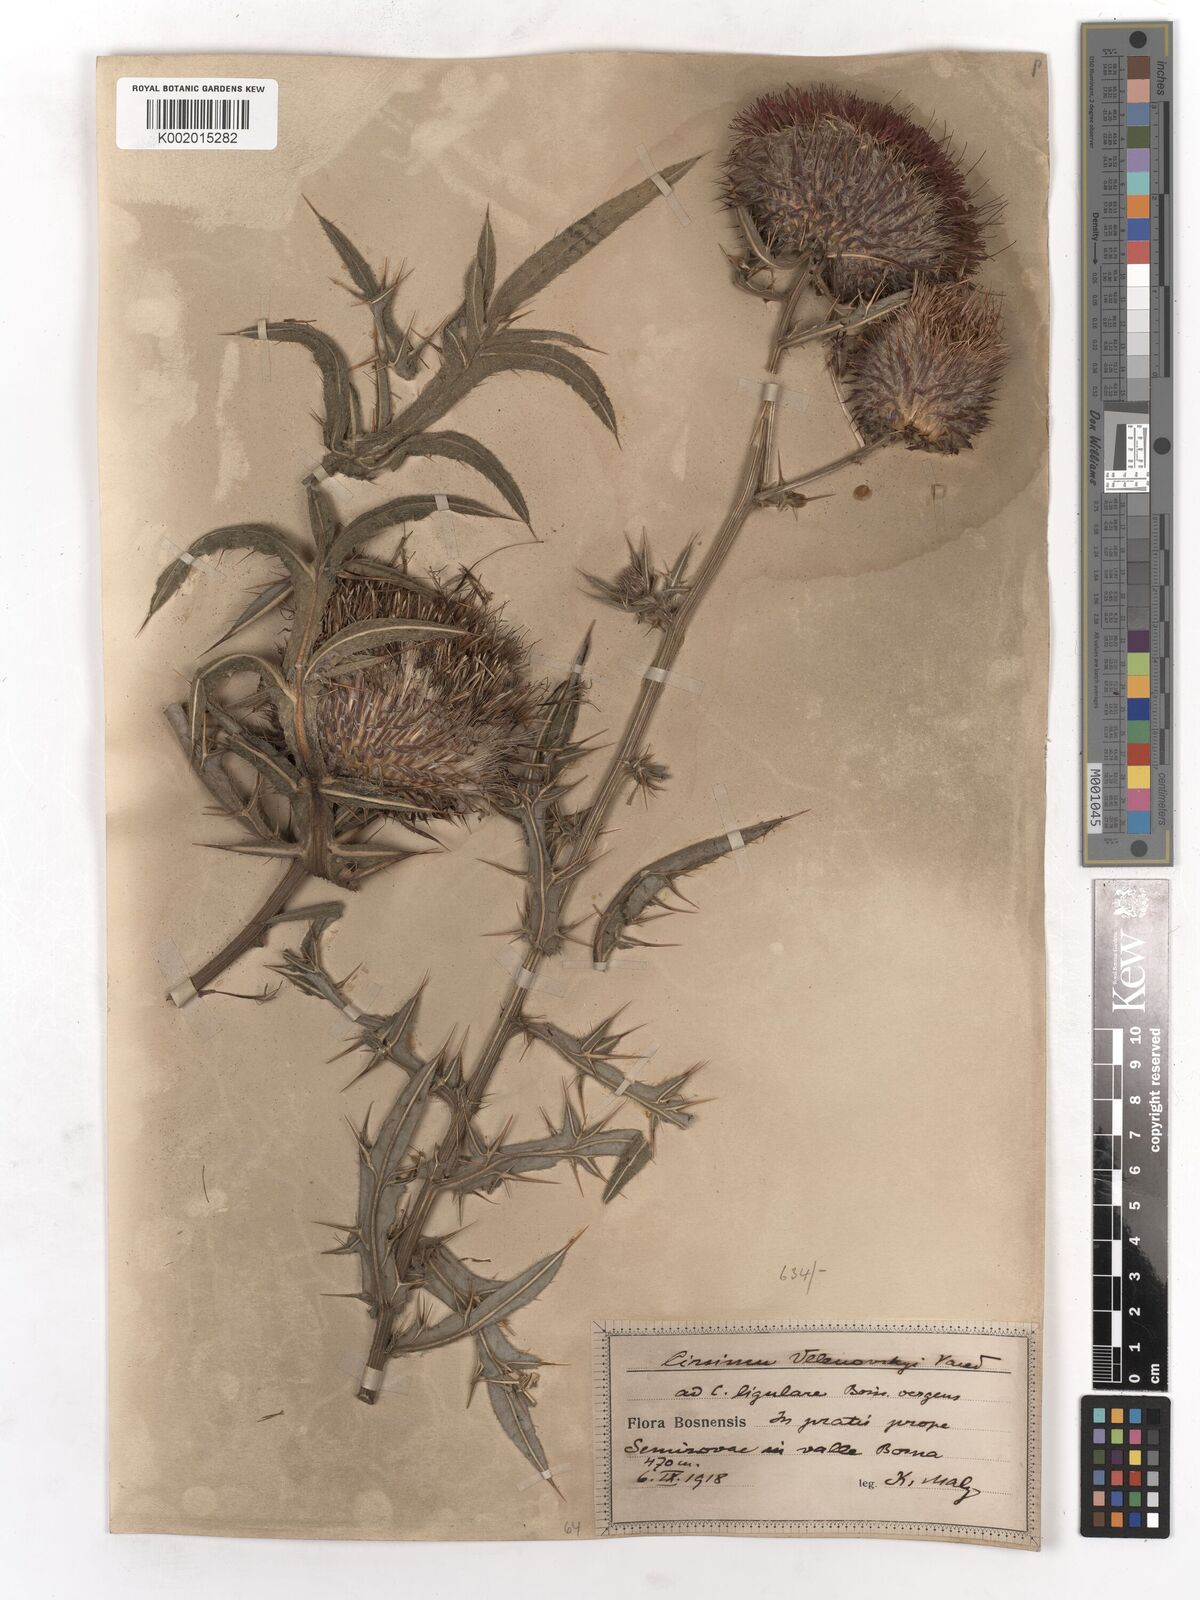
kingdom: Plantae
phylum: Tracheophyta
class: Magnoliopsida
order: Asterales
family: Asteraceae
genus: Lophiolepis
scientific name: Lophiolepis eriophora
